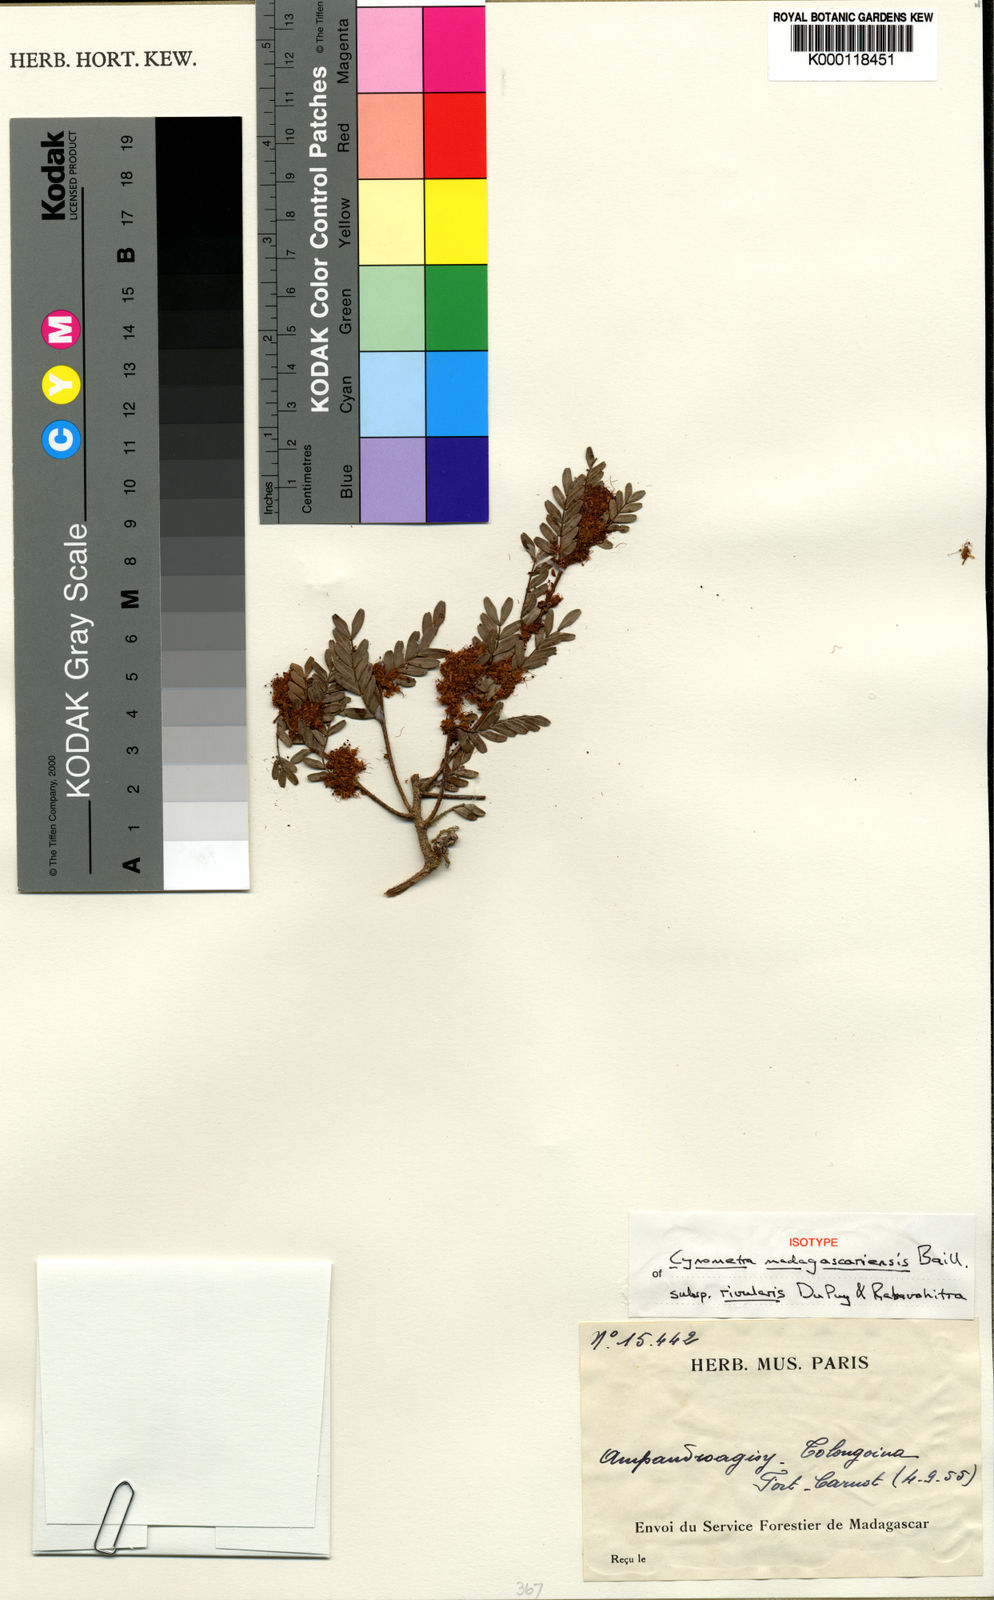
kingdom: Plantae
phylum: Tracheophyta
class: Magnoliopsida
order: Fabales
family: Fabaceae
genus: Cynometra
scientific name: Cynometra madagascariensis
